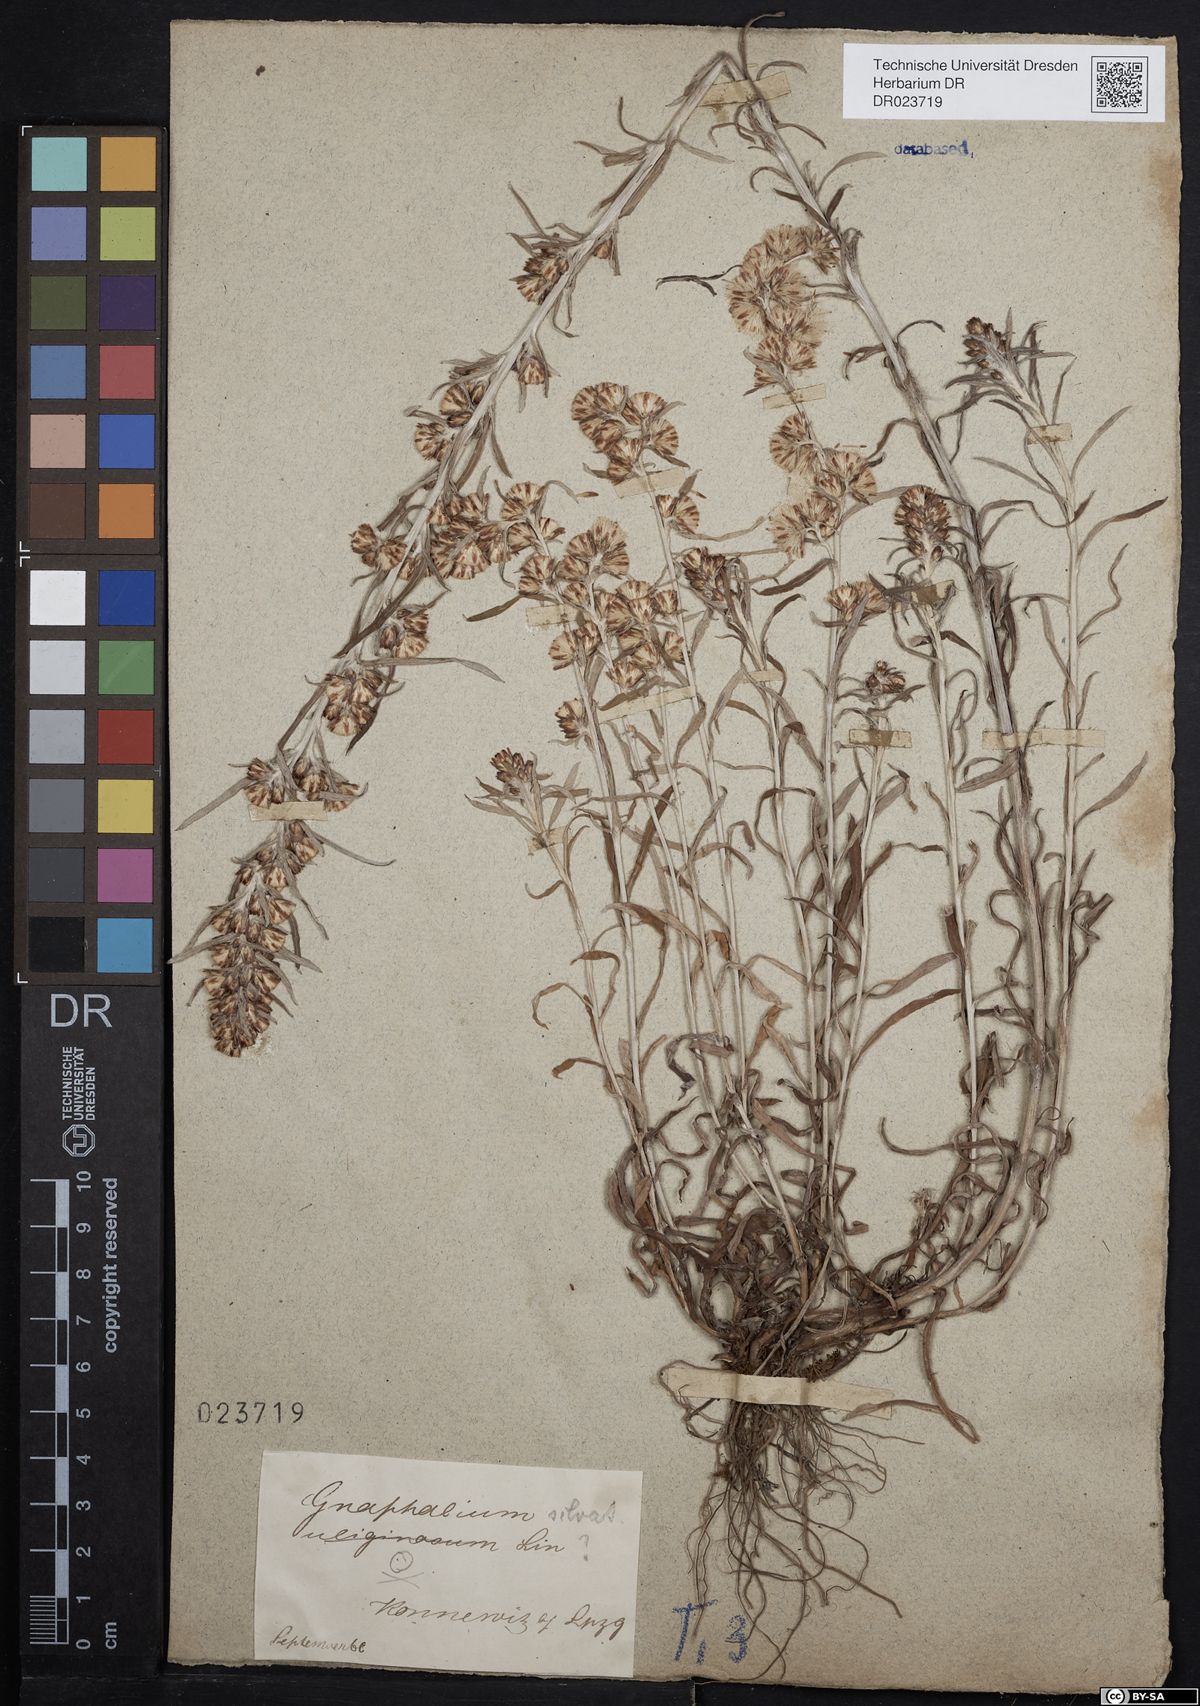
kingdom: Plantae
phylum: Tracheophyta
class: Magnoliopsida
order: Asterales
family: Asteraceae
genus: Omalotheca
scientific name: Omalotheca sylvatica
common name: Heath cudweed
